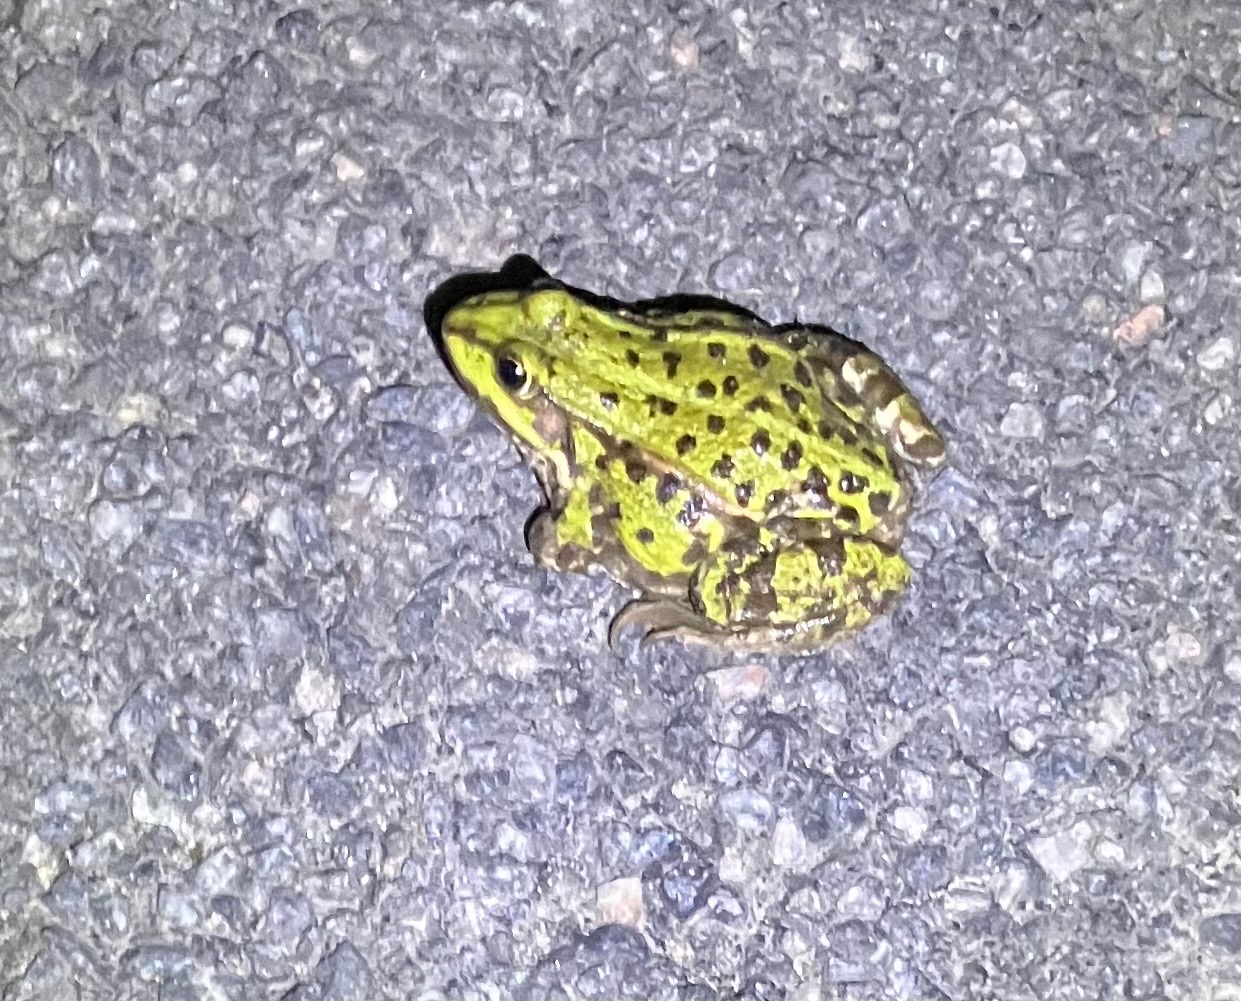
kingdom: Animalia
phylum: Chordata
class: Amphibia
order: Anura
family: Ranidae
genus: Pelophylax
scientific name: Pelophylax lessonae
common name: Grøn frø
